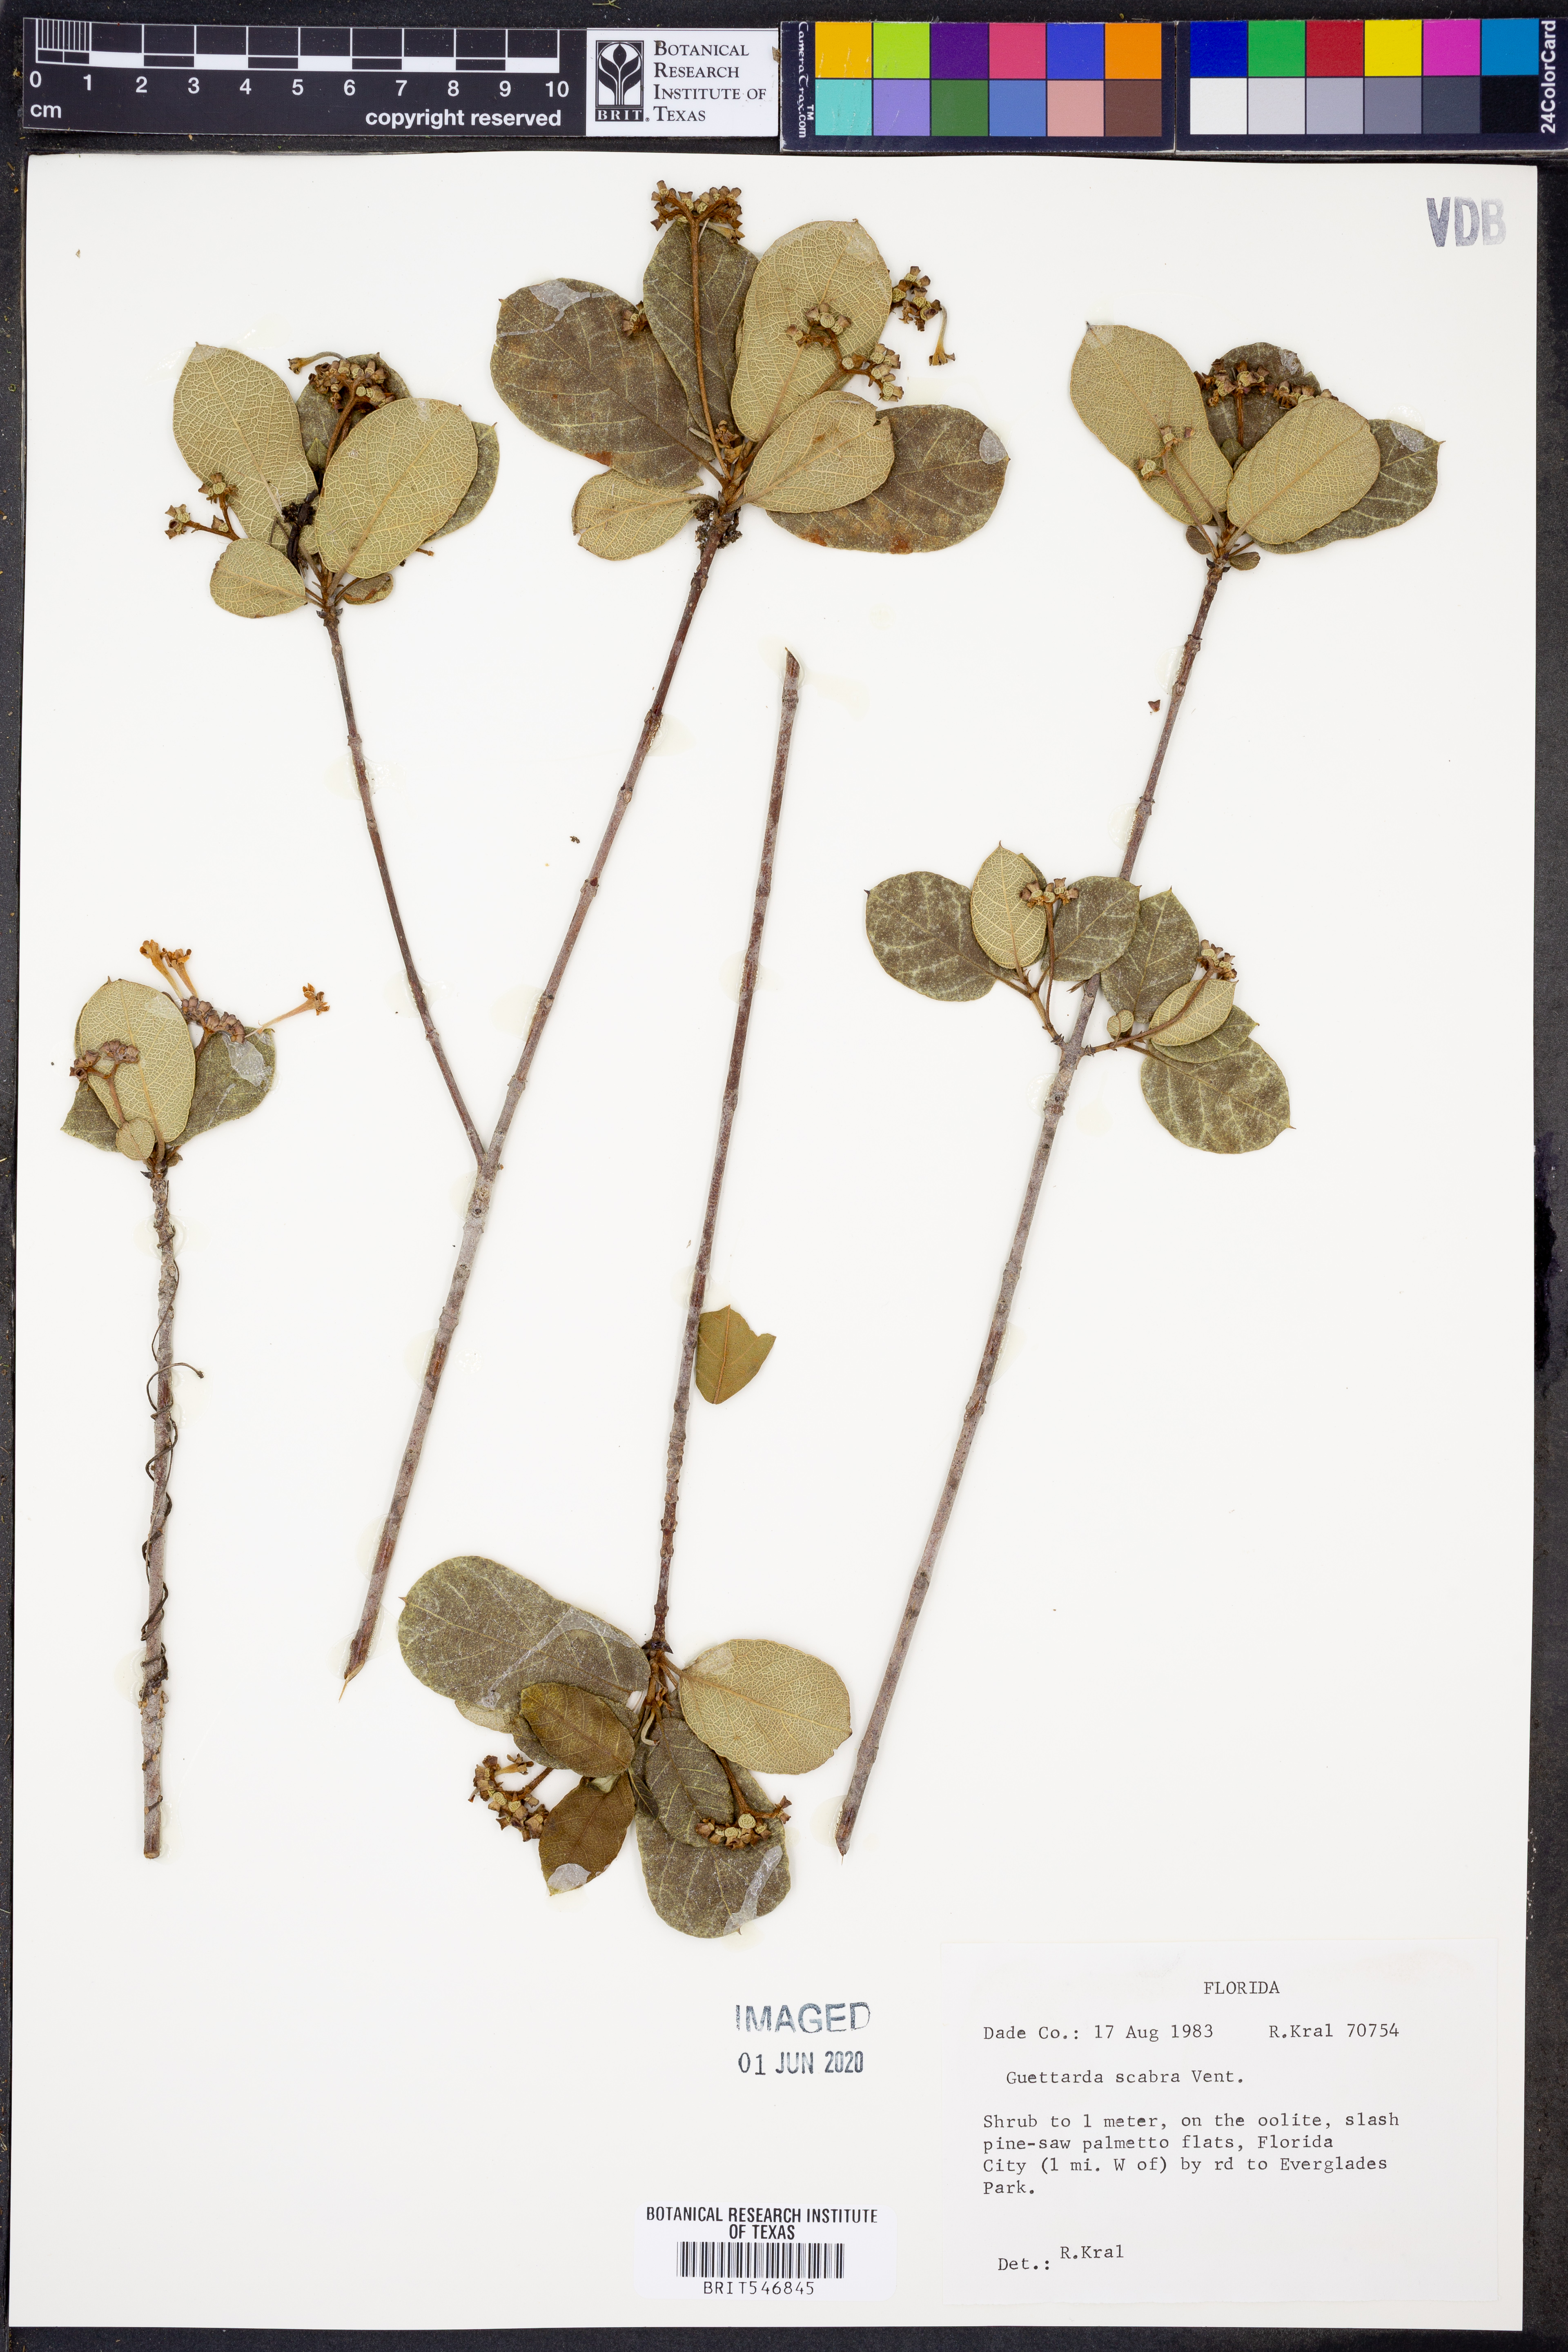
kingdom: Plantae
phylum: Tracheophyta
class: Magnoliopsida
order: Gentianales
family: Rubiaceae
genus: Guettarda
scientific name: Guettarda scabra
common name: Pigeon bay
